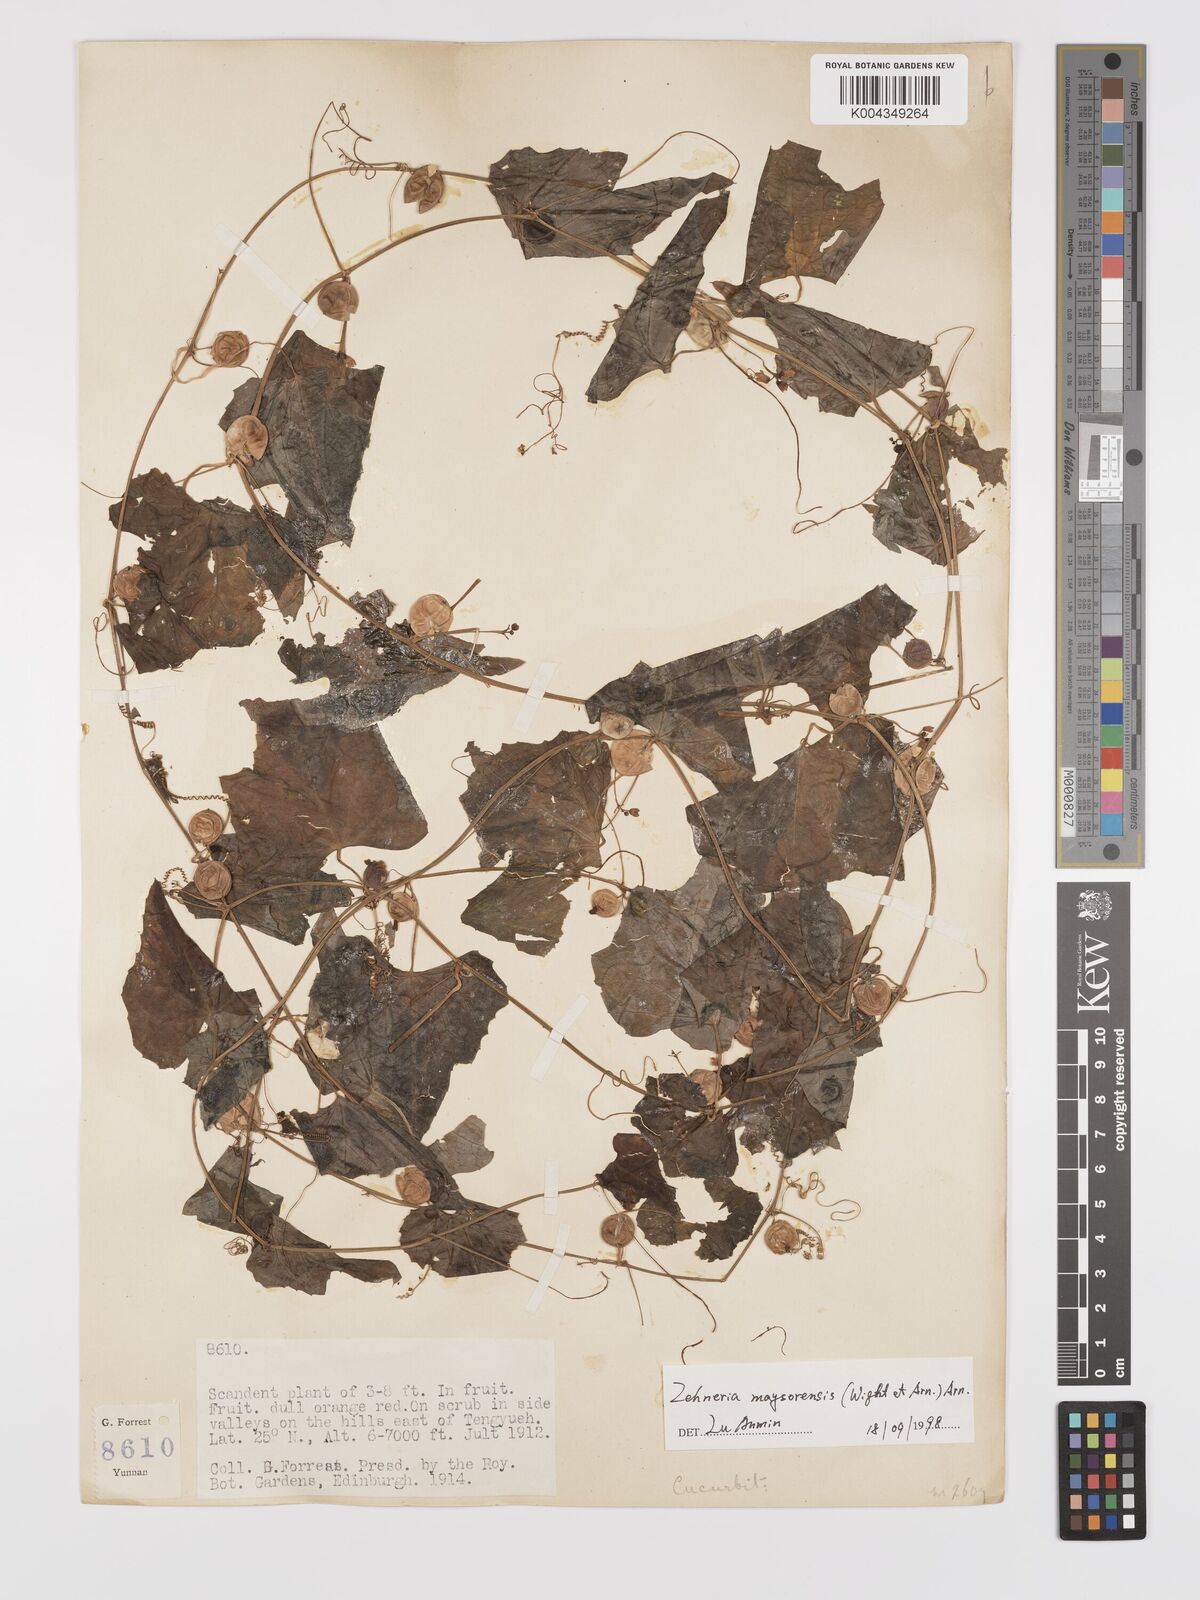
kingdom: Plantae
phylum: Tracheophyta
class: Magnoliopsida
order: Cucurbitales
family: Cucurbitaceae
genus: Zehneria
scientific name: Zehneria maysorensis
